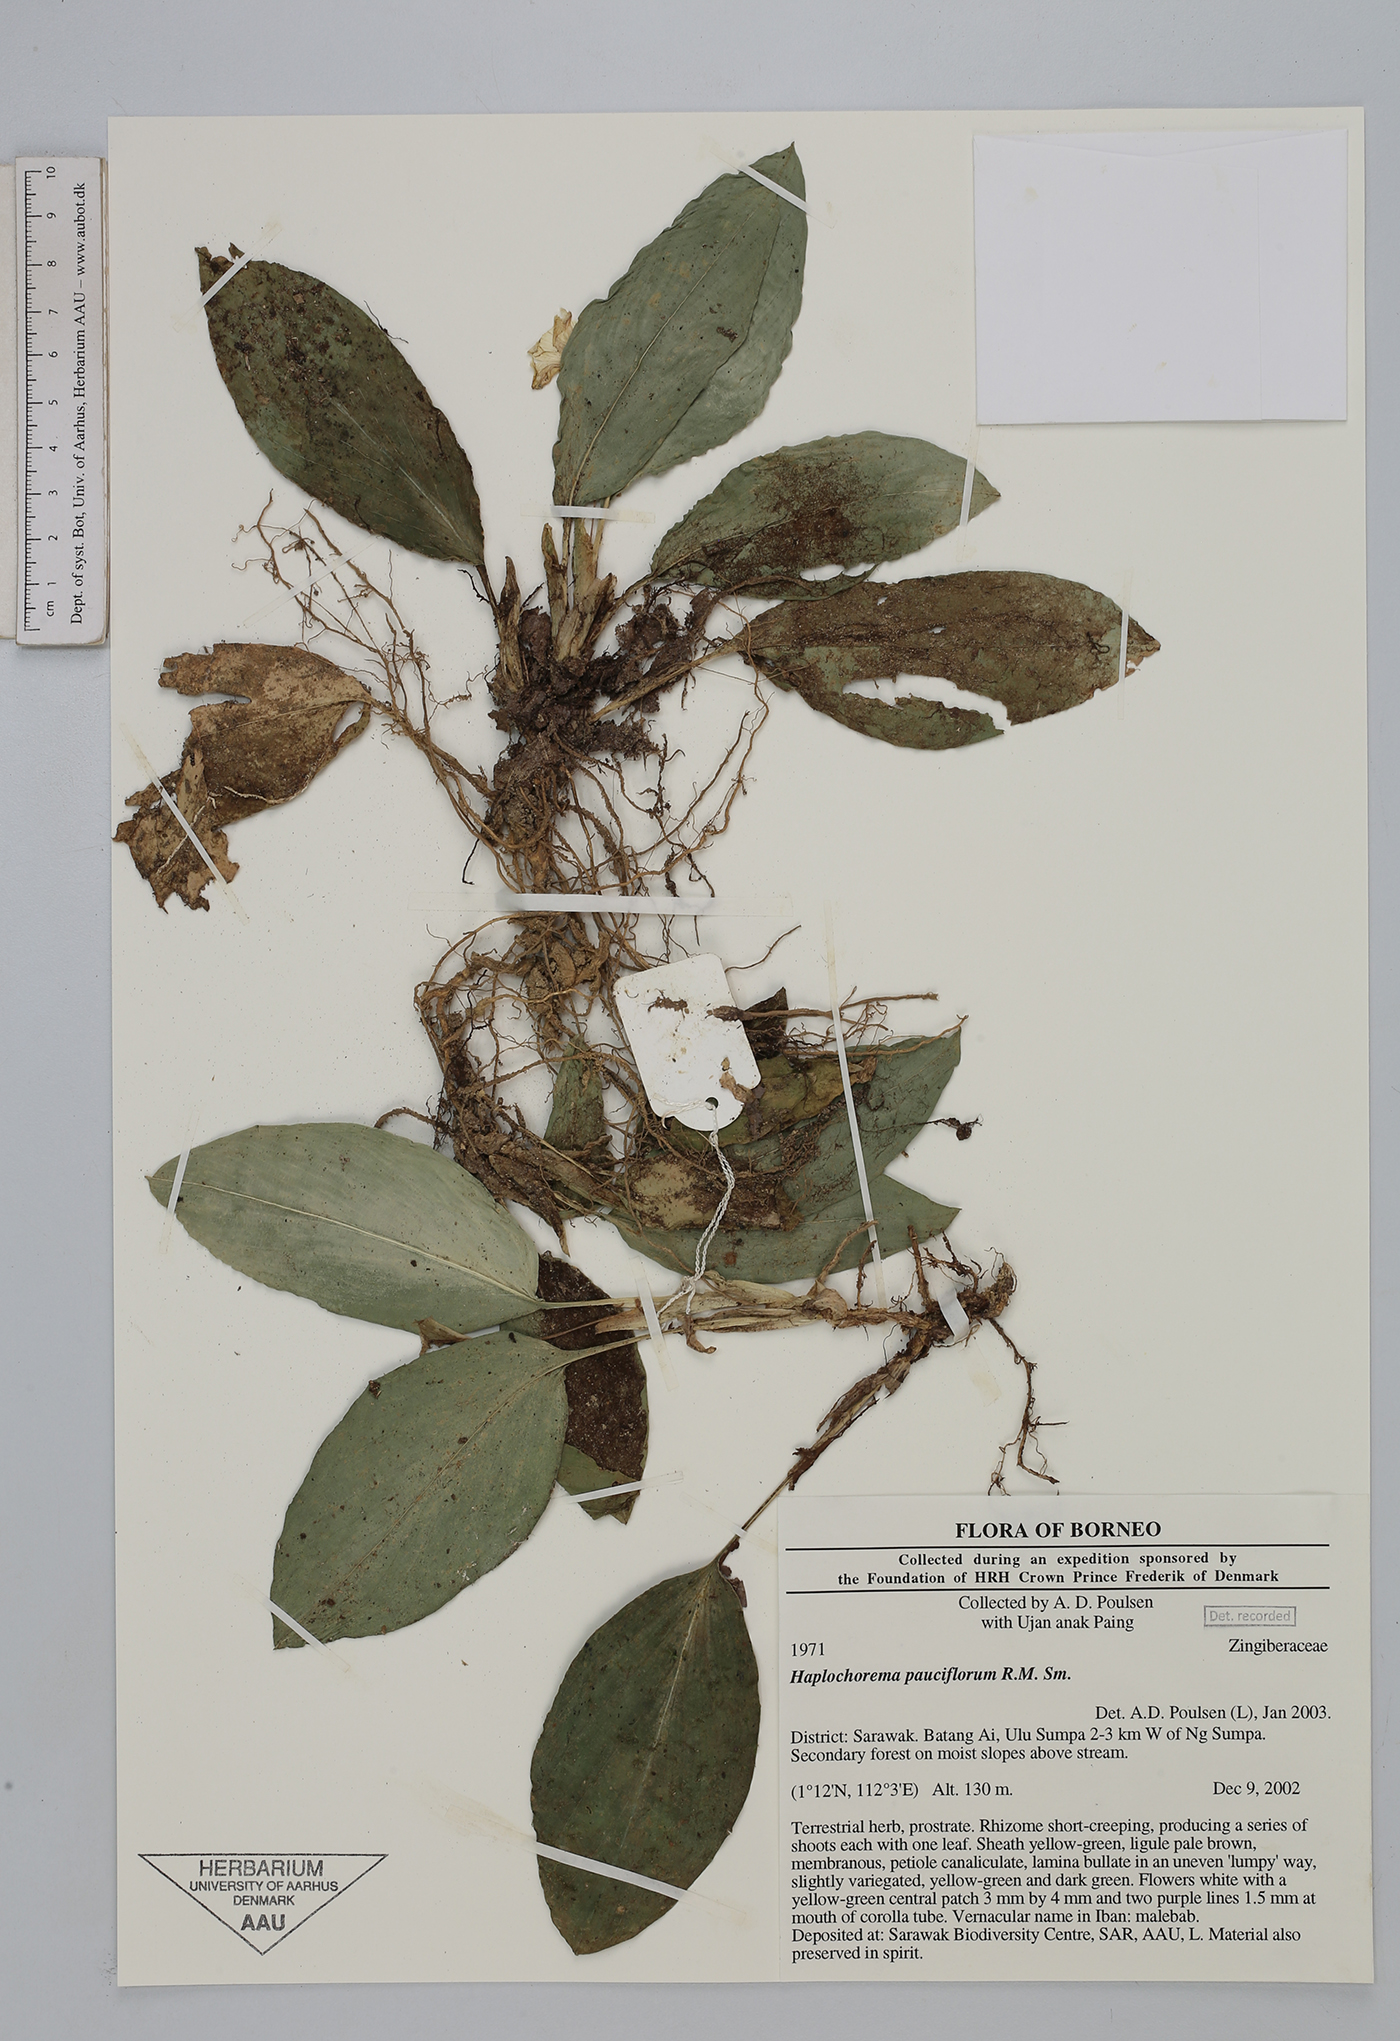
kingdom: Plantae
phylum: Tracheophyta
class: Liliopsida
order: Zingiberales
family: Zingiberaceae
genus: Boesenbergia
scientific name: Boesenbergia pauciflora
